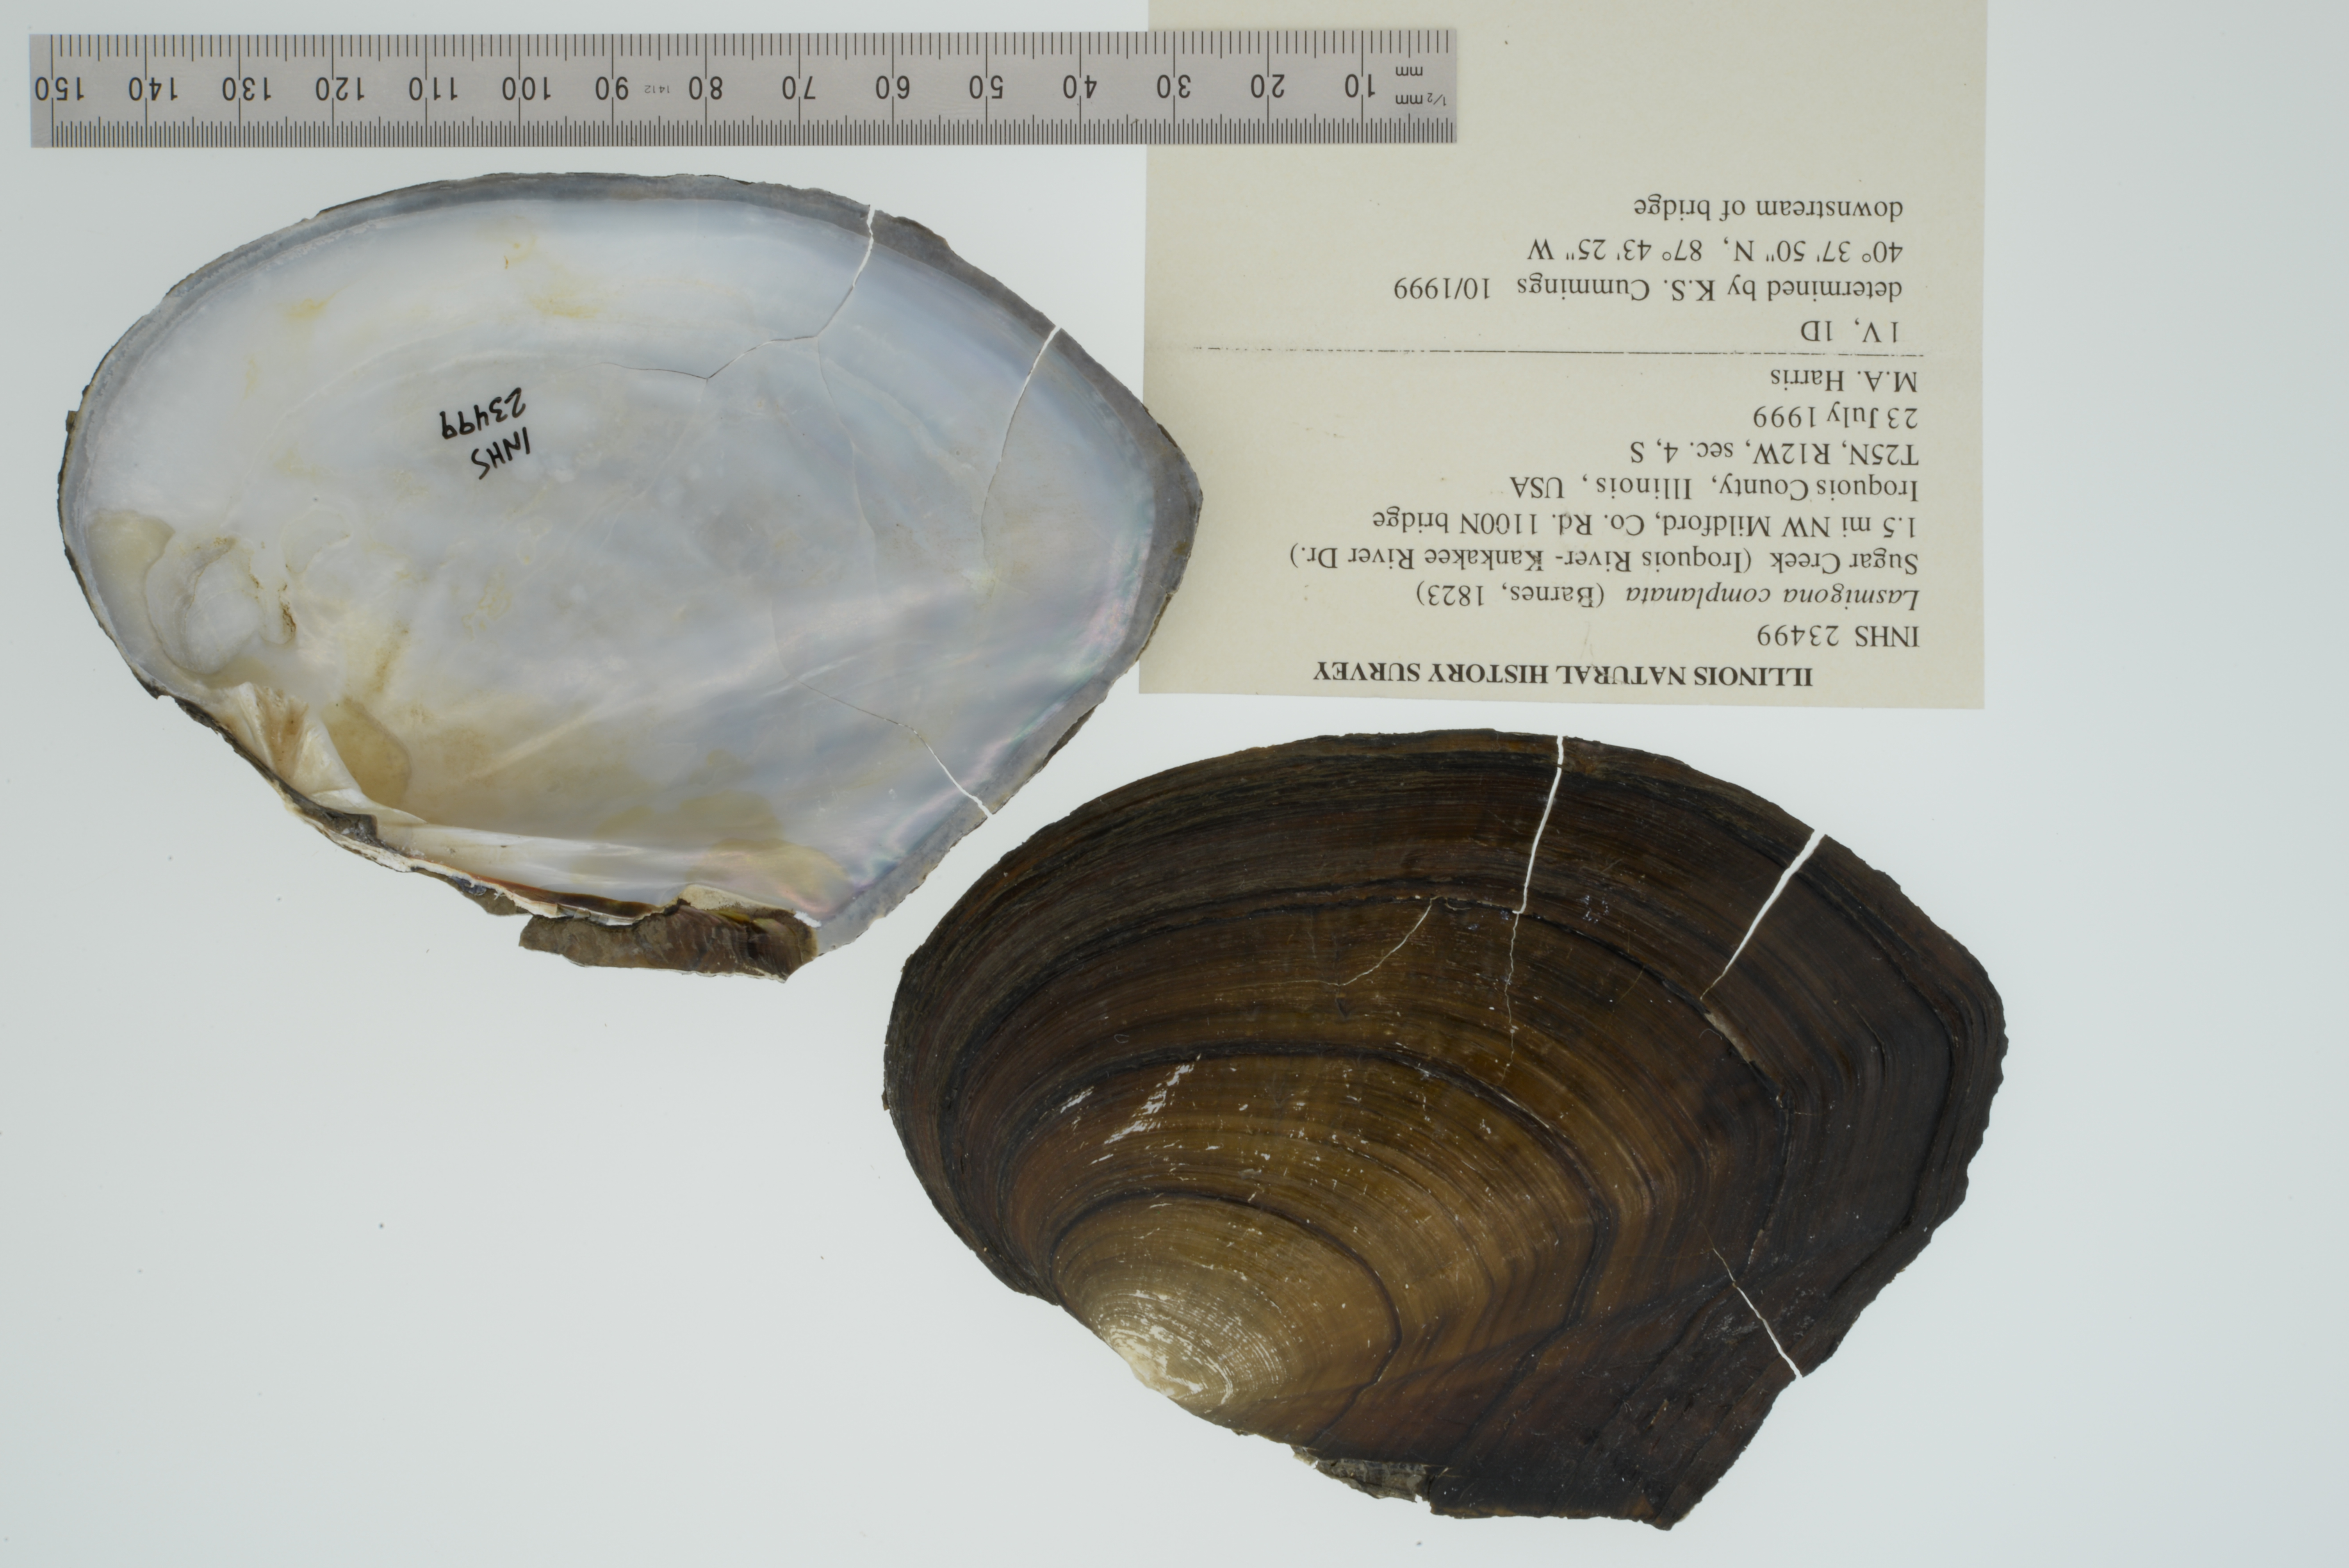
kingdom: Animalia
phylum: Mollusca
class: Bivalvia
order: Unionida
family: Unionidae
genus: Lasmigona
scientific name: Lasmigona complanata
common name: White heelsplitter
